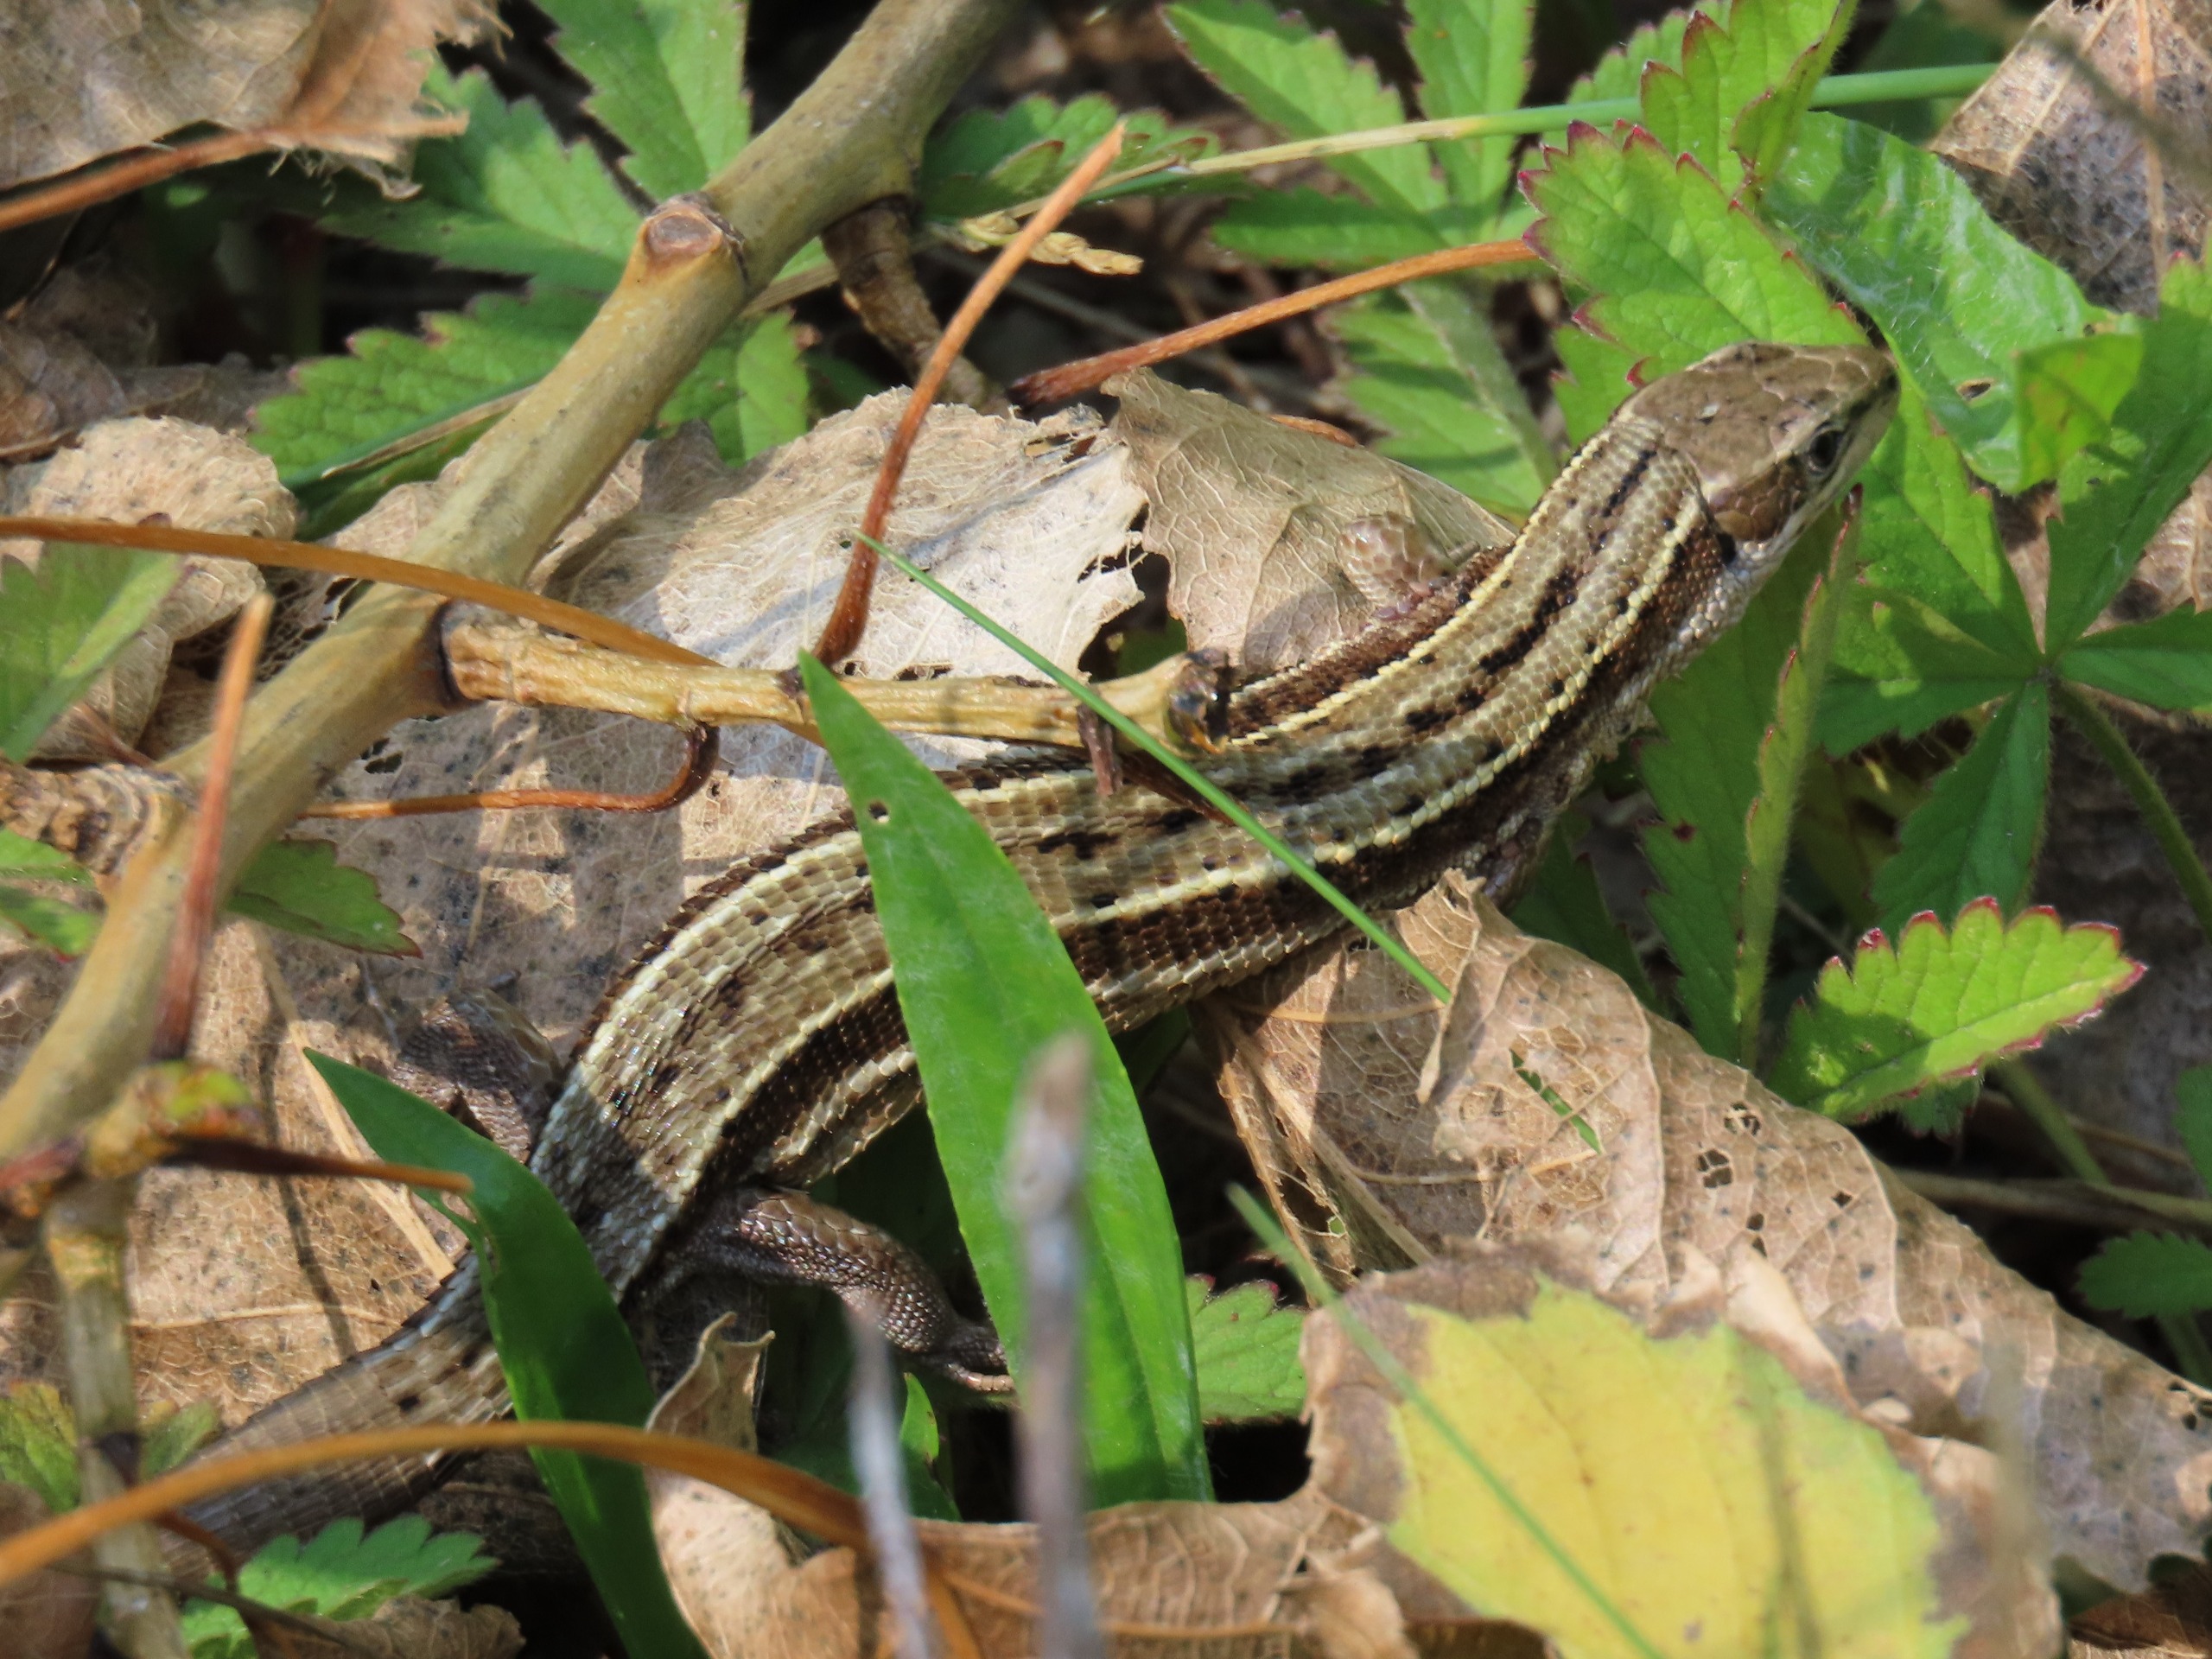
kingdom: Animalia
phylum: Chordata
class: Squamata
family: Lacertidae
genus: Zootoca
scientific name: Zootoca vivipara
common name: Skovfirben
